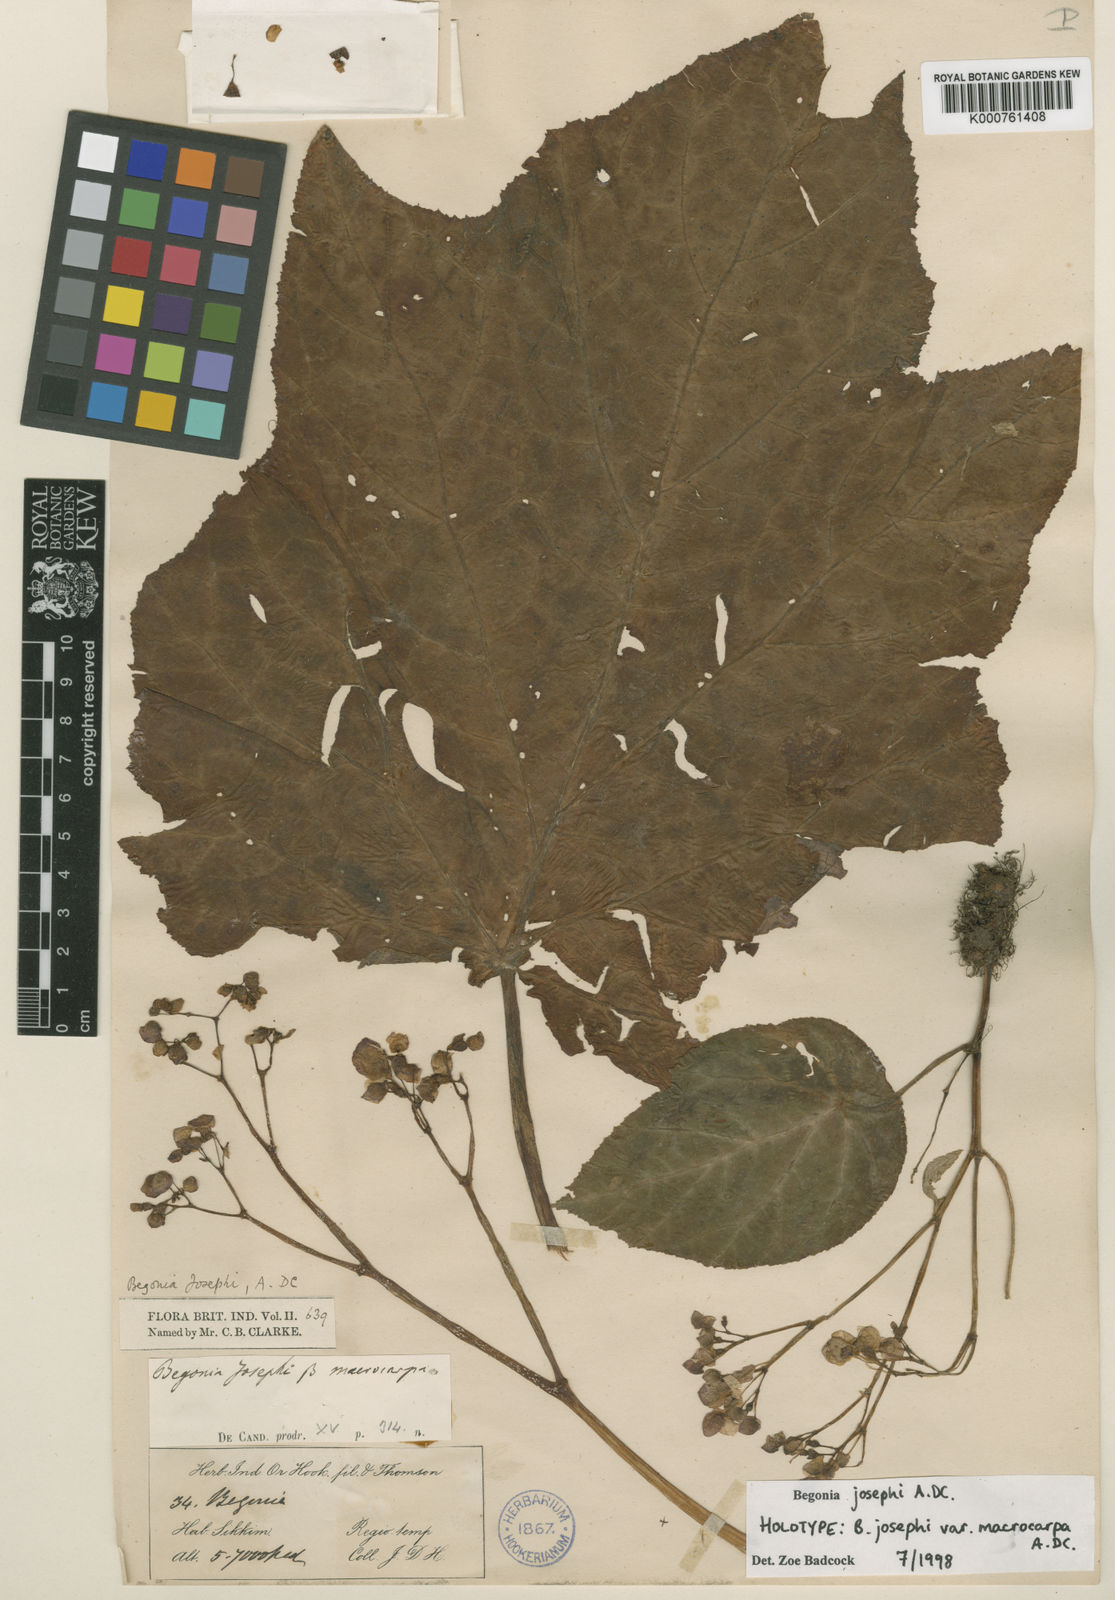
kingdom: Plantae
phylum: Tracheophyta
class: Magnoliopsida
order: Cucurbitales
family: Begoniaceae
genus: Begonia
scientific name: Begonia josephi
